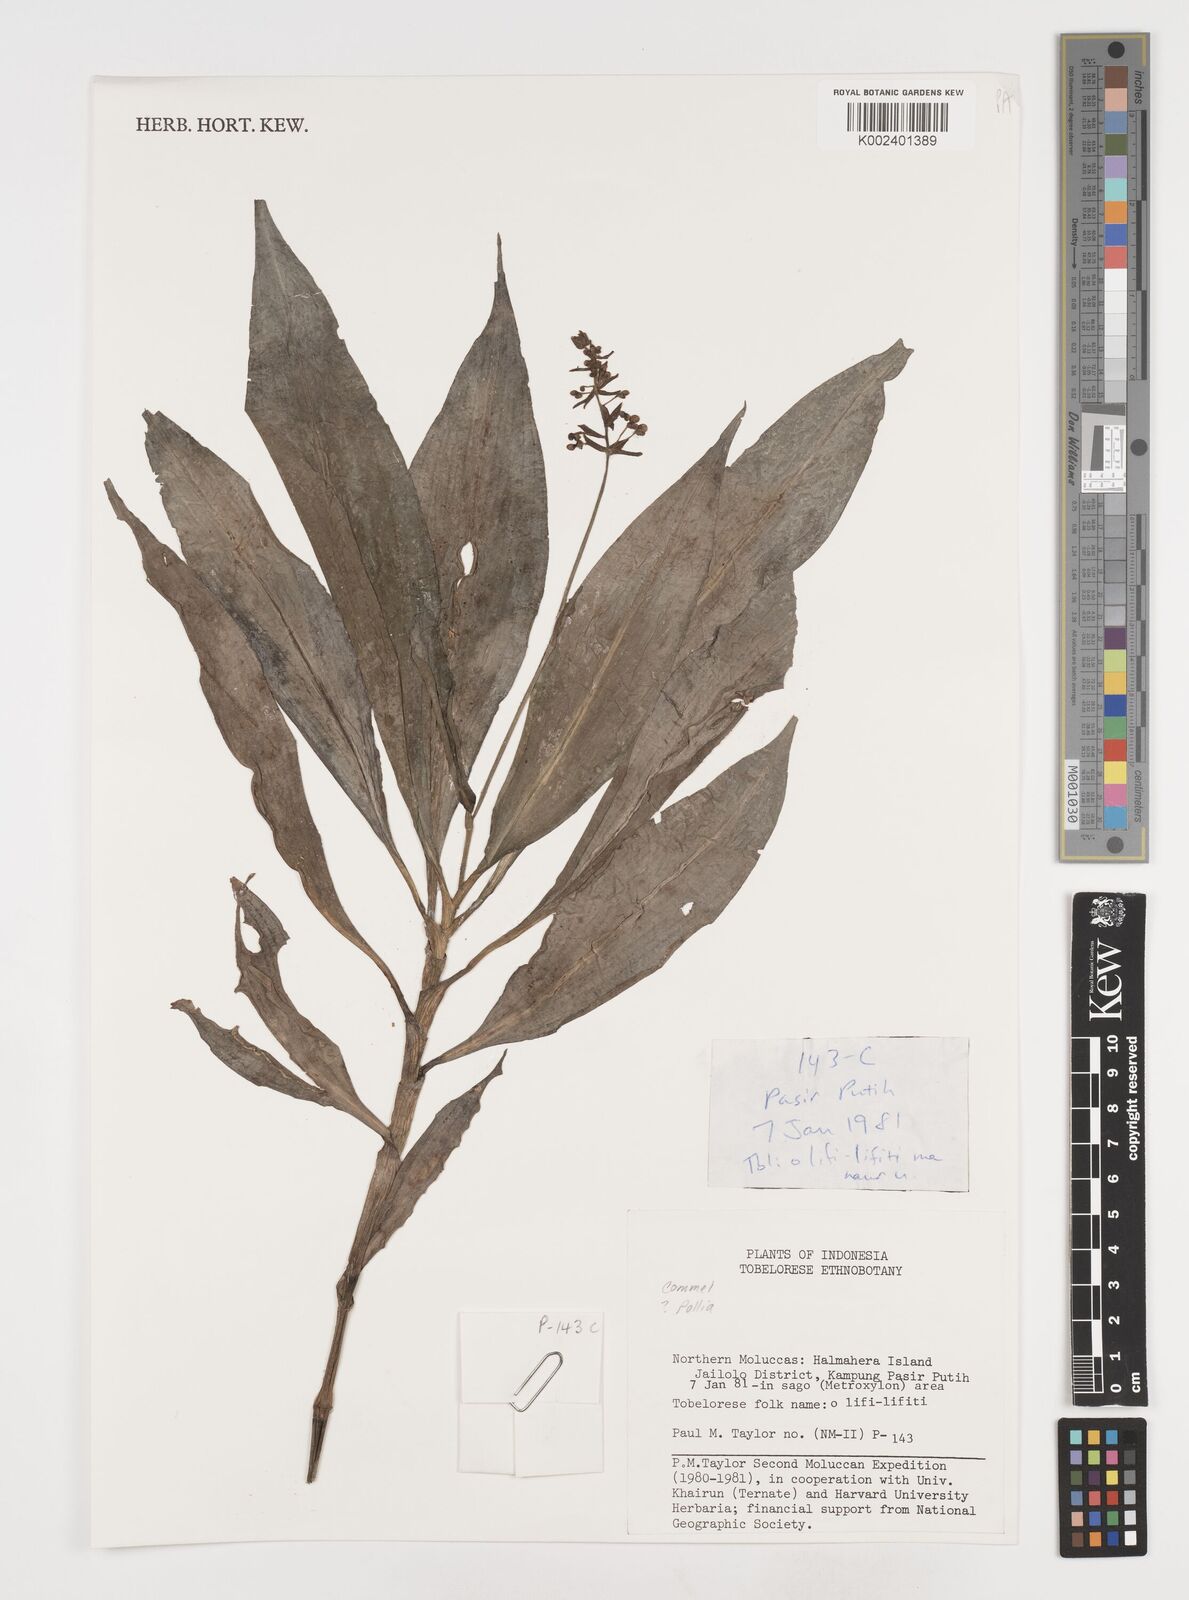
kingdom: Plantae
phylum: Tracheophyta
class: Liliopsida
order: Commelinales
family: Commelinaceae
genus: Pollia
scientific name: Pollia
